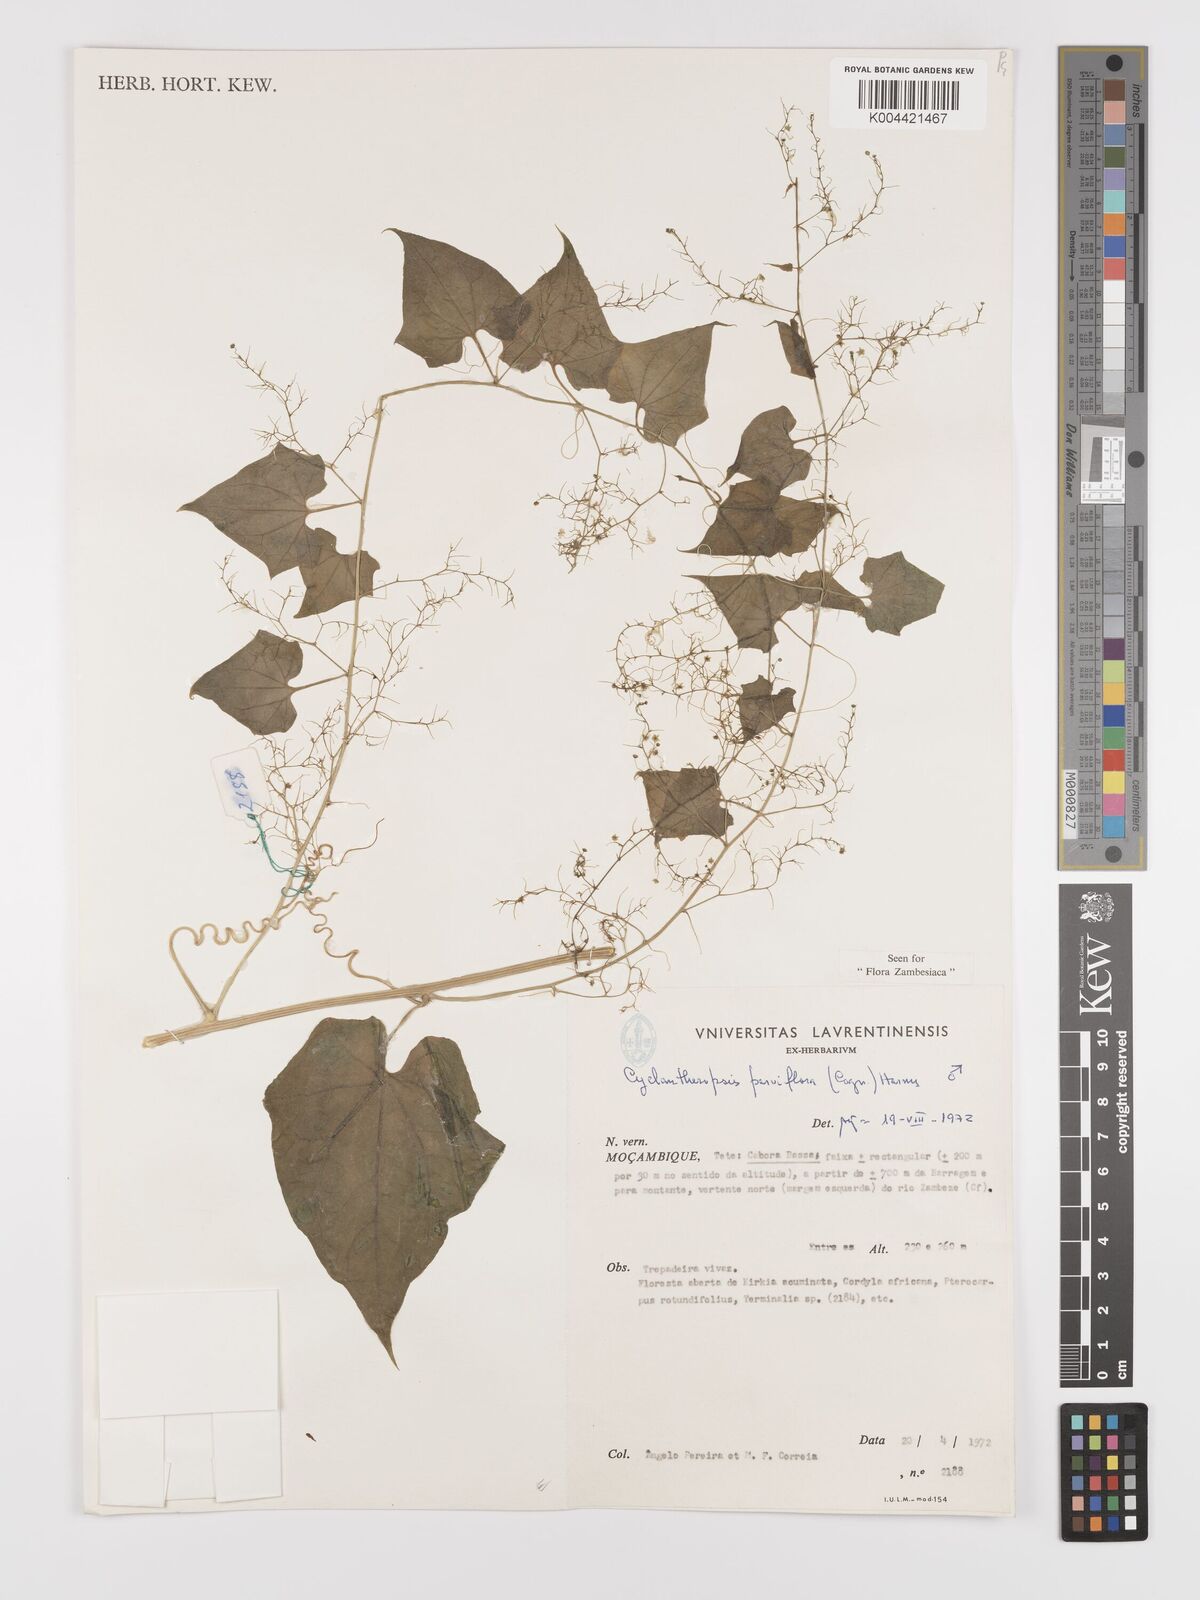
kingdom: Plantae
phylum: Tracheophyta
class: Magnoliopsida
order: Cucurbitales
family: Cucurbitaceae
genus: Cyclantheropsis
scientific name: Cyclantheropsis parviflora
